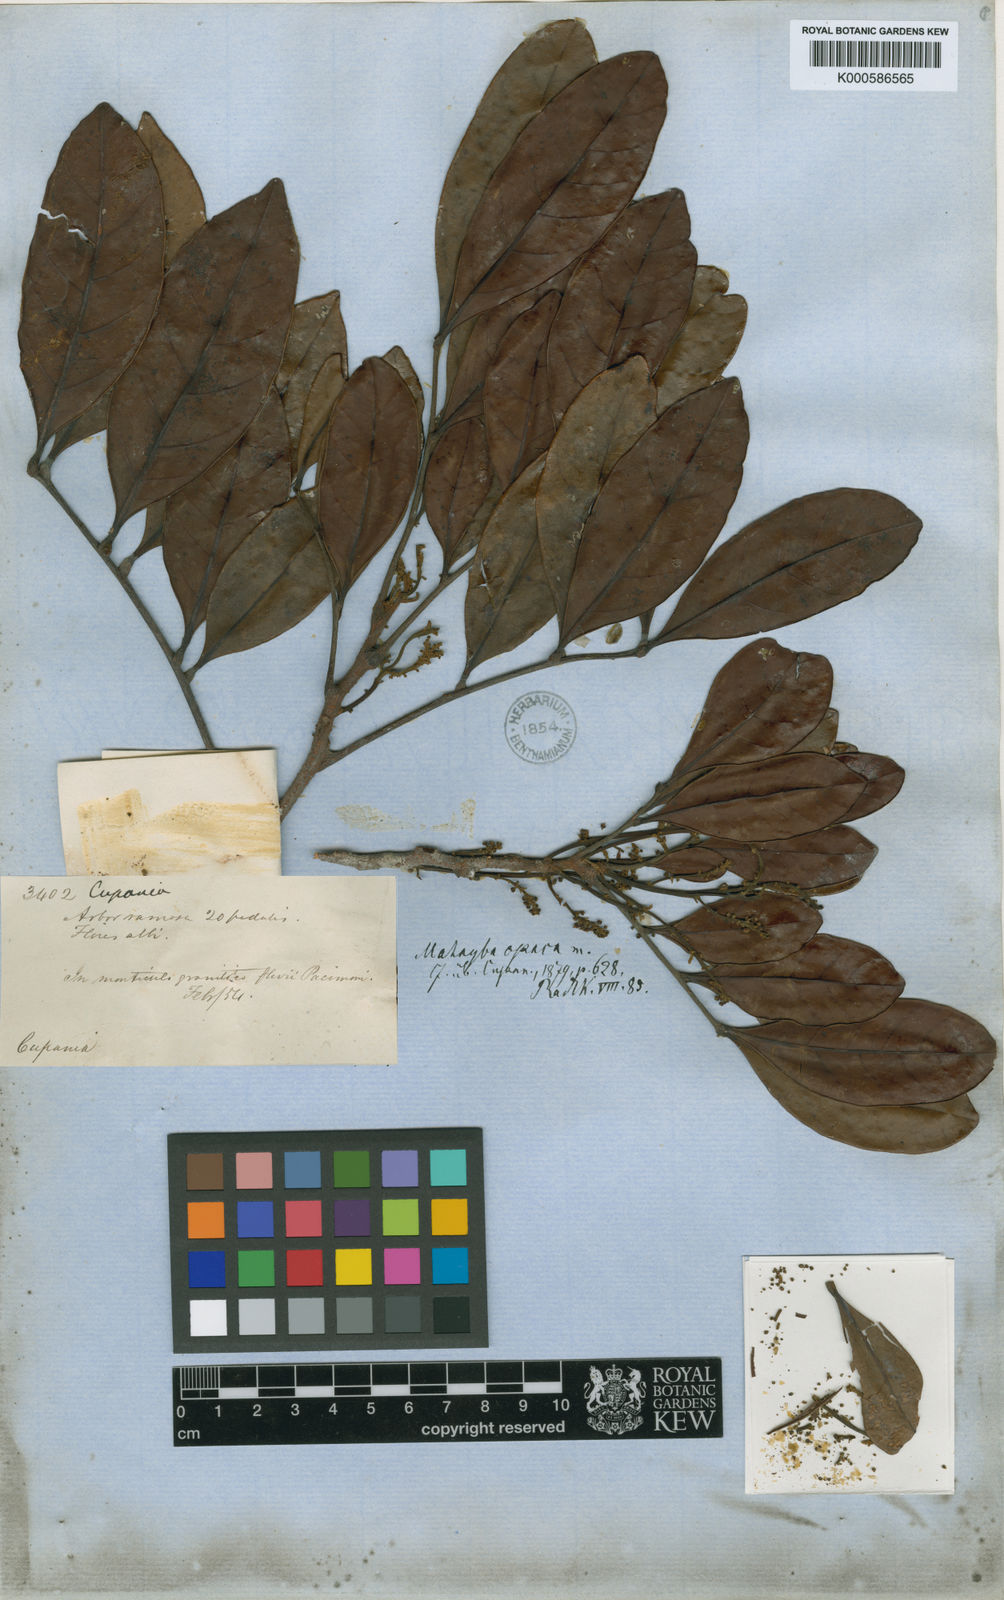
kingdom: Plantae
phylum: Tracheophyta
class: Magnoliopsida
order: Sapindales
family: Sapindaceae
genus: Matayba
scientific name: Matayba opaca
